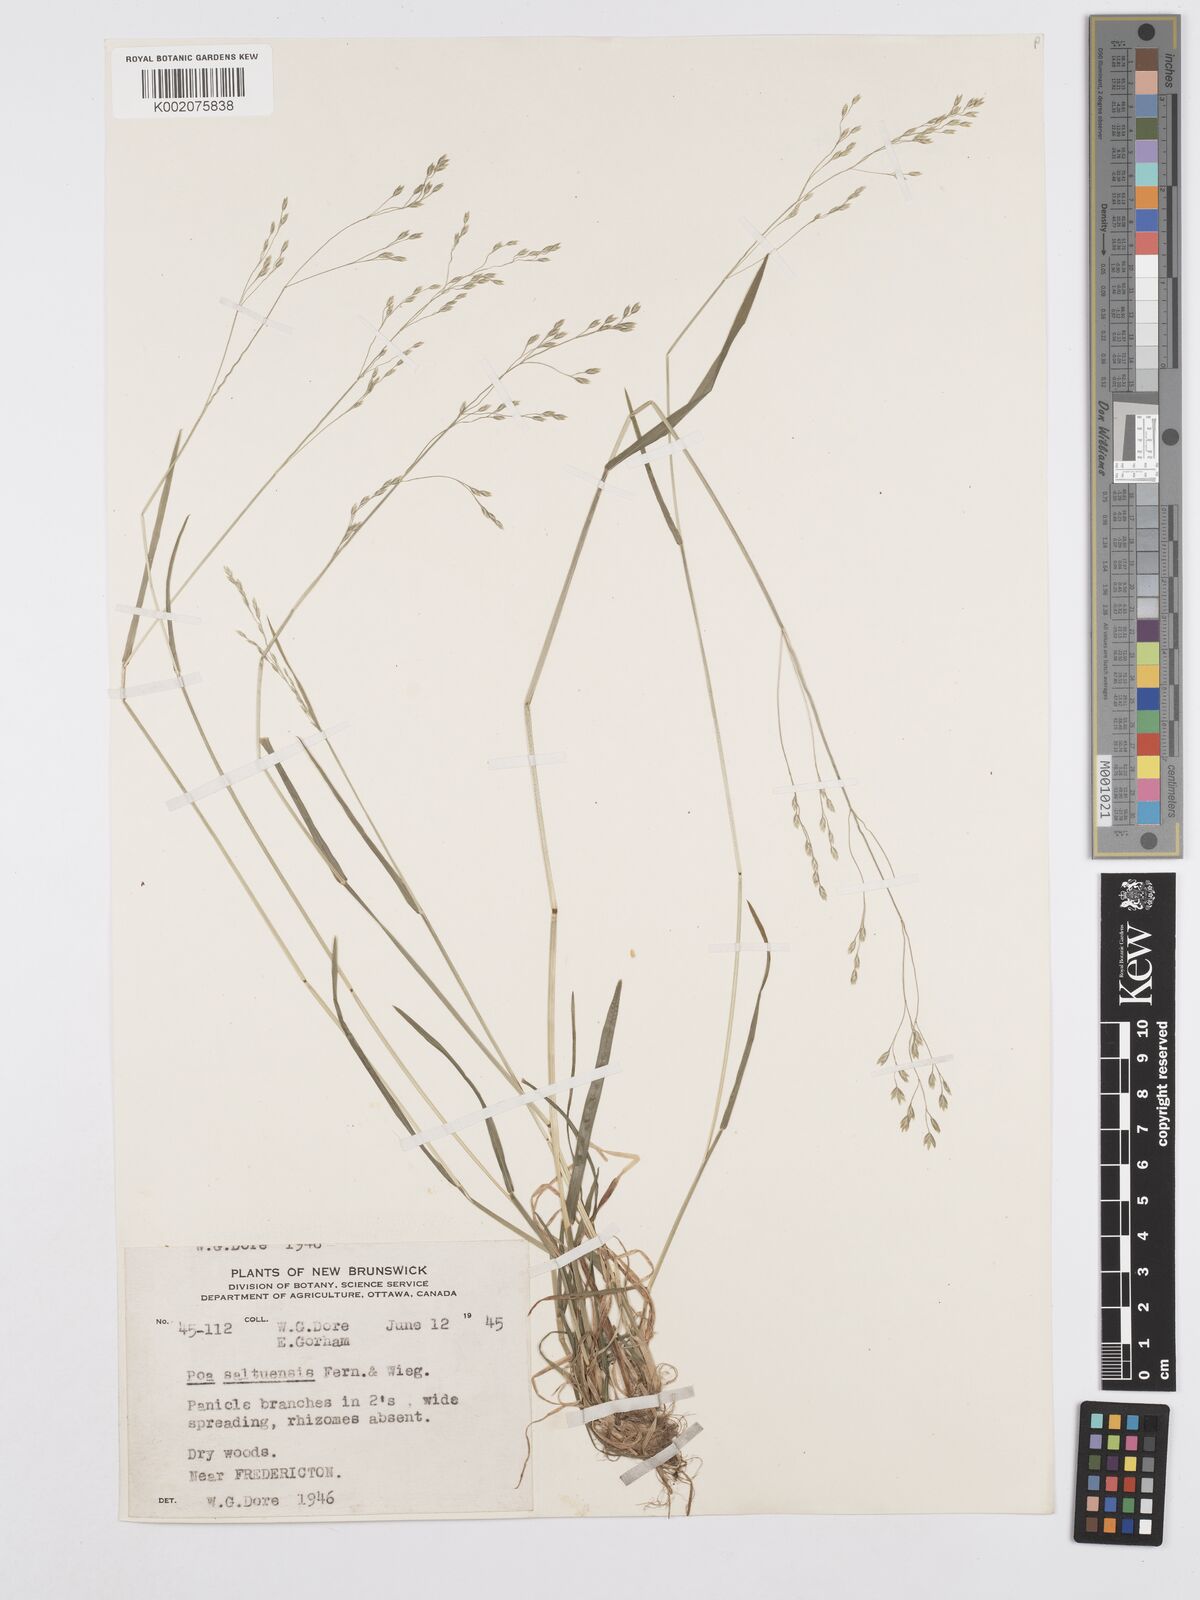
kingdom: Plantae
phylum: Tracheophyta
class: Liliopsida
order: Poales
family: Poaceae
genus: Poa
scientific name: Poa saltuensis
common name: Bushy pasture speargrass
